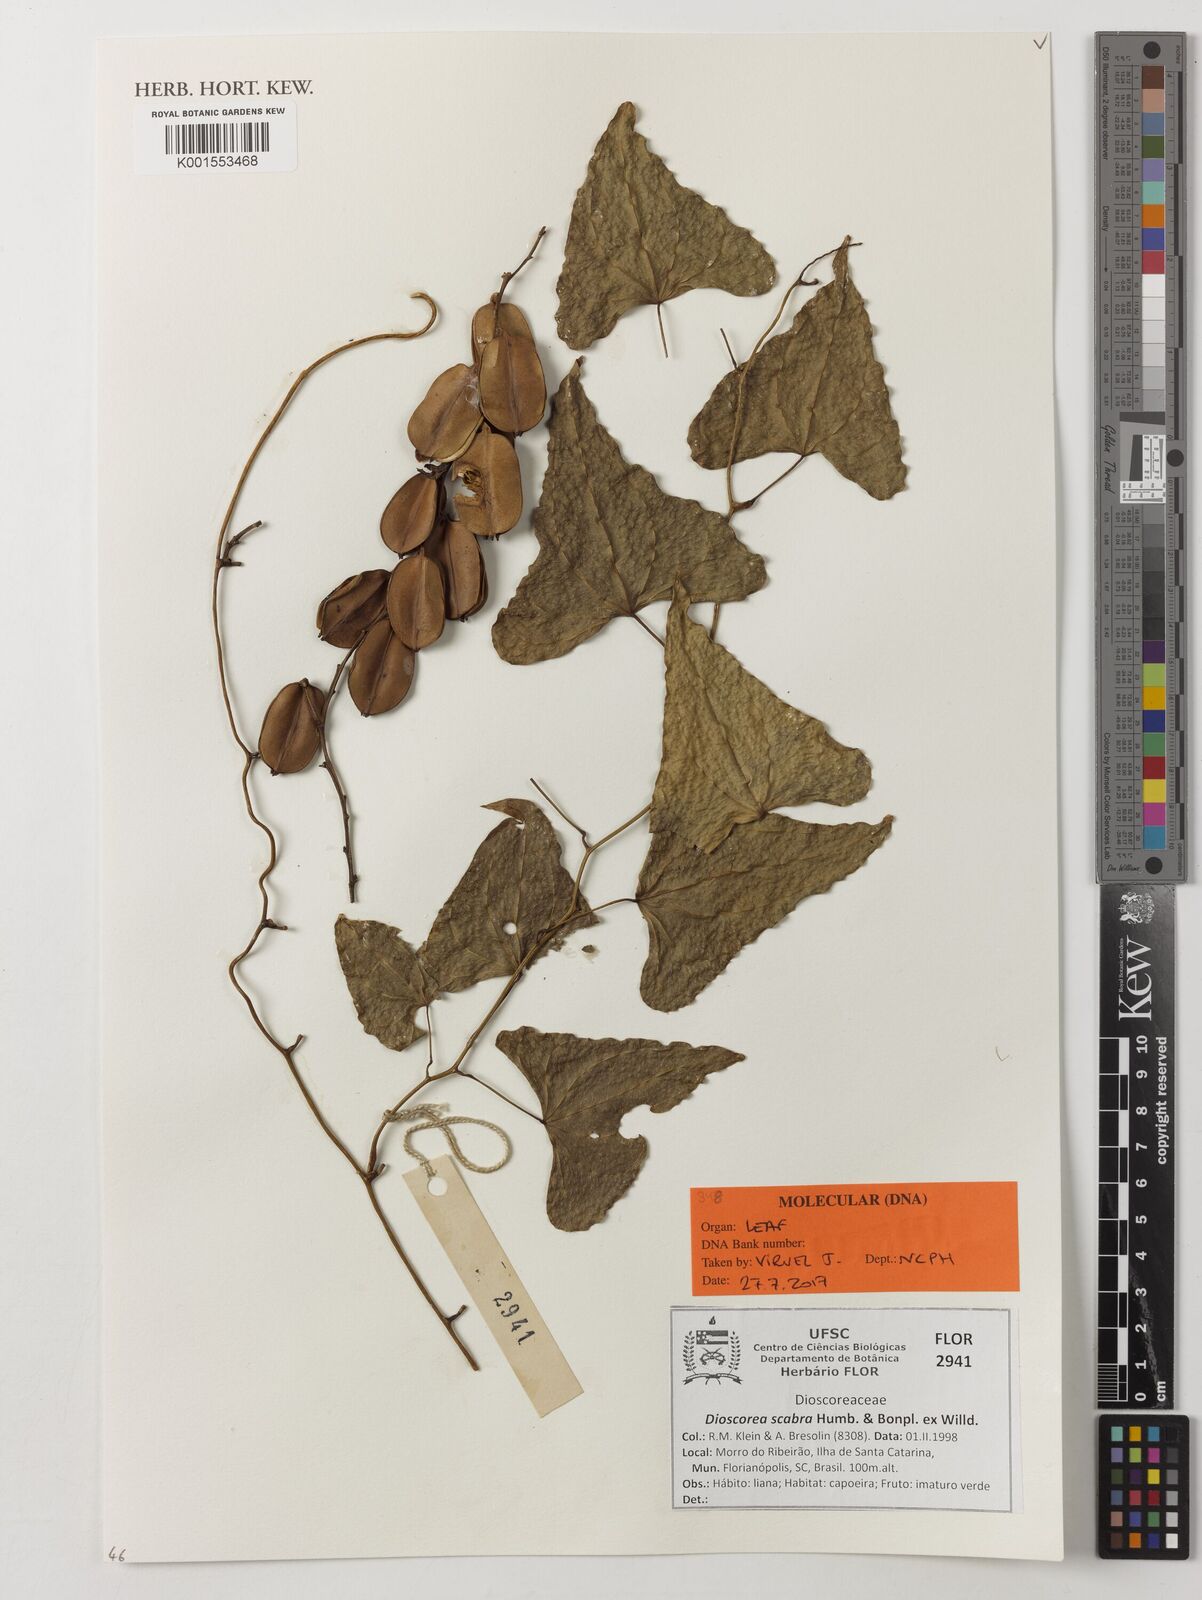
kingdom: Plantae
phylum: Tracheophyta
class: Liliopsida
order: Dioscoreales
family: Dioscoreaceae
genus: Dioscorea
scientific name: Dioscorea scabra
